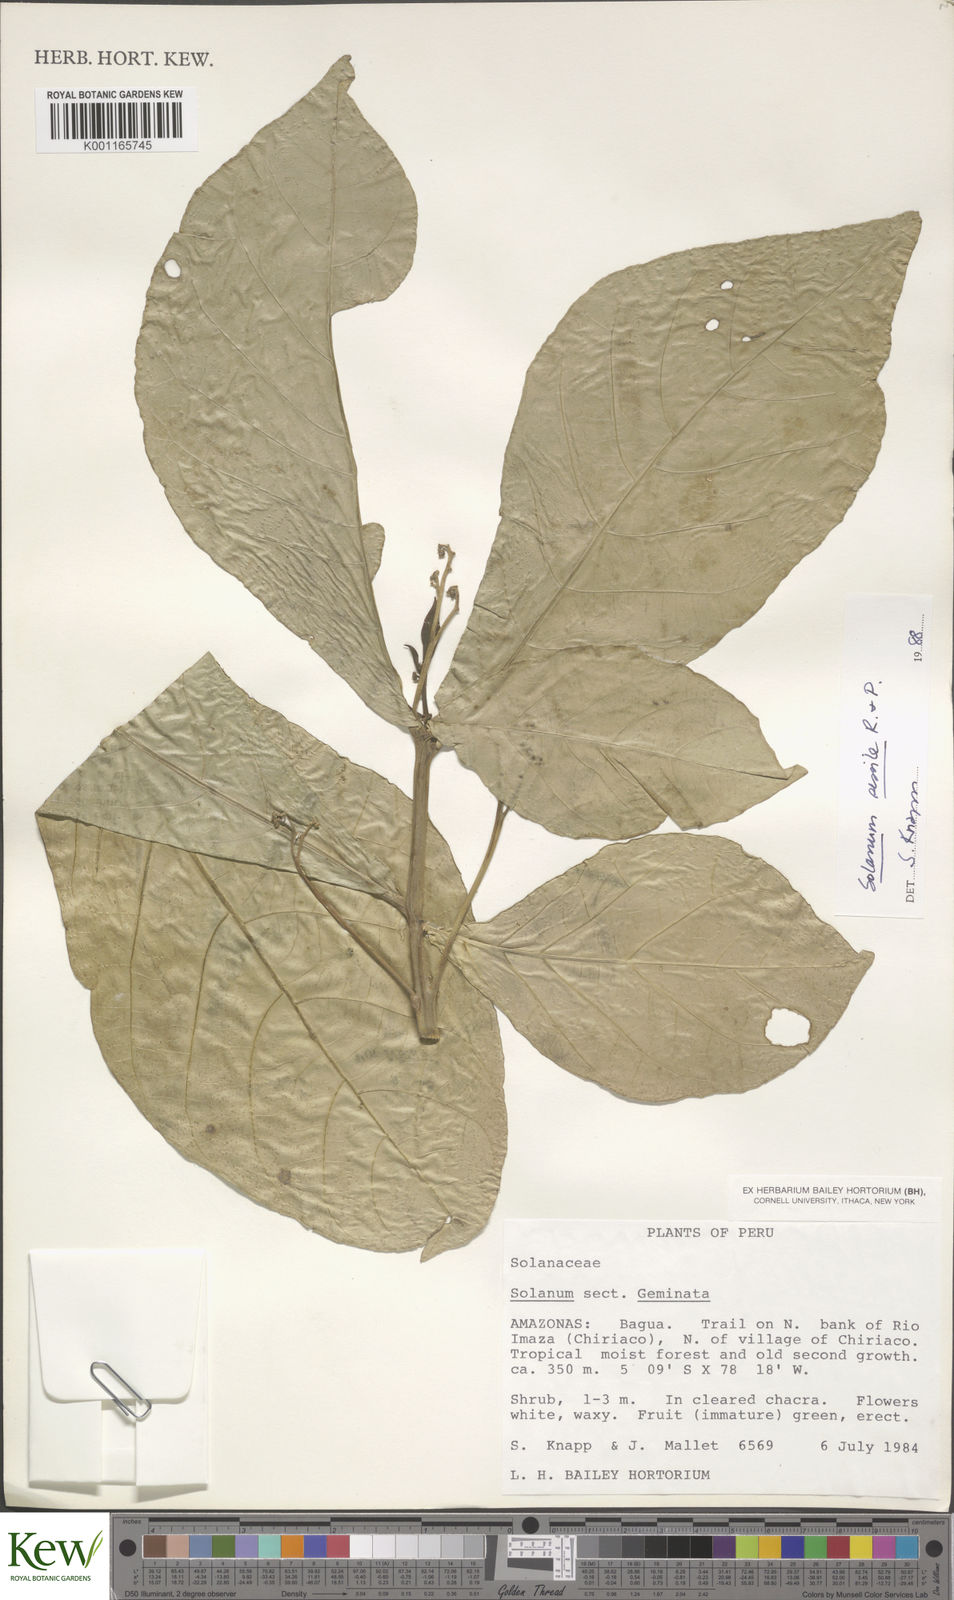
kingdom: Plantae
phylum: Tracheophyta
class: Magnoliopsida
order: Solanales
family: Solanaceae
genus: Solanum
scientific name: Solanum sessile
